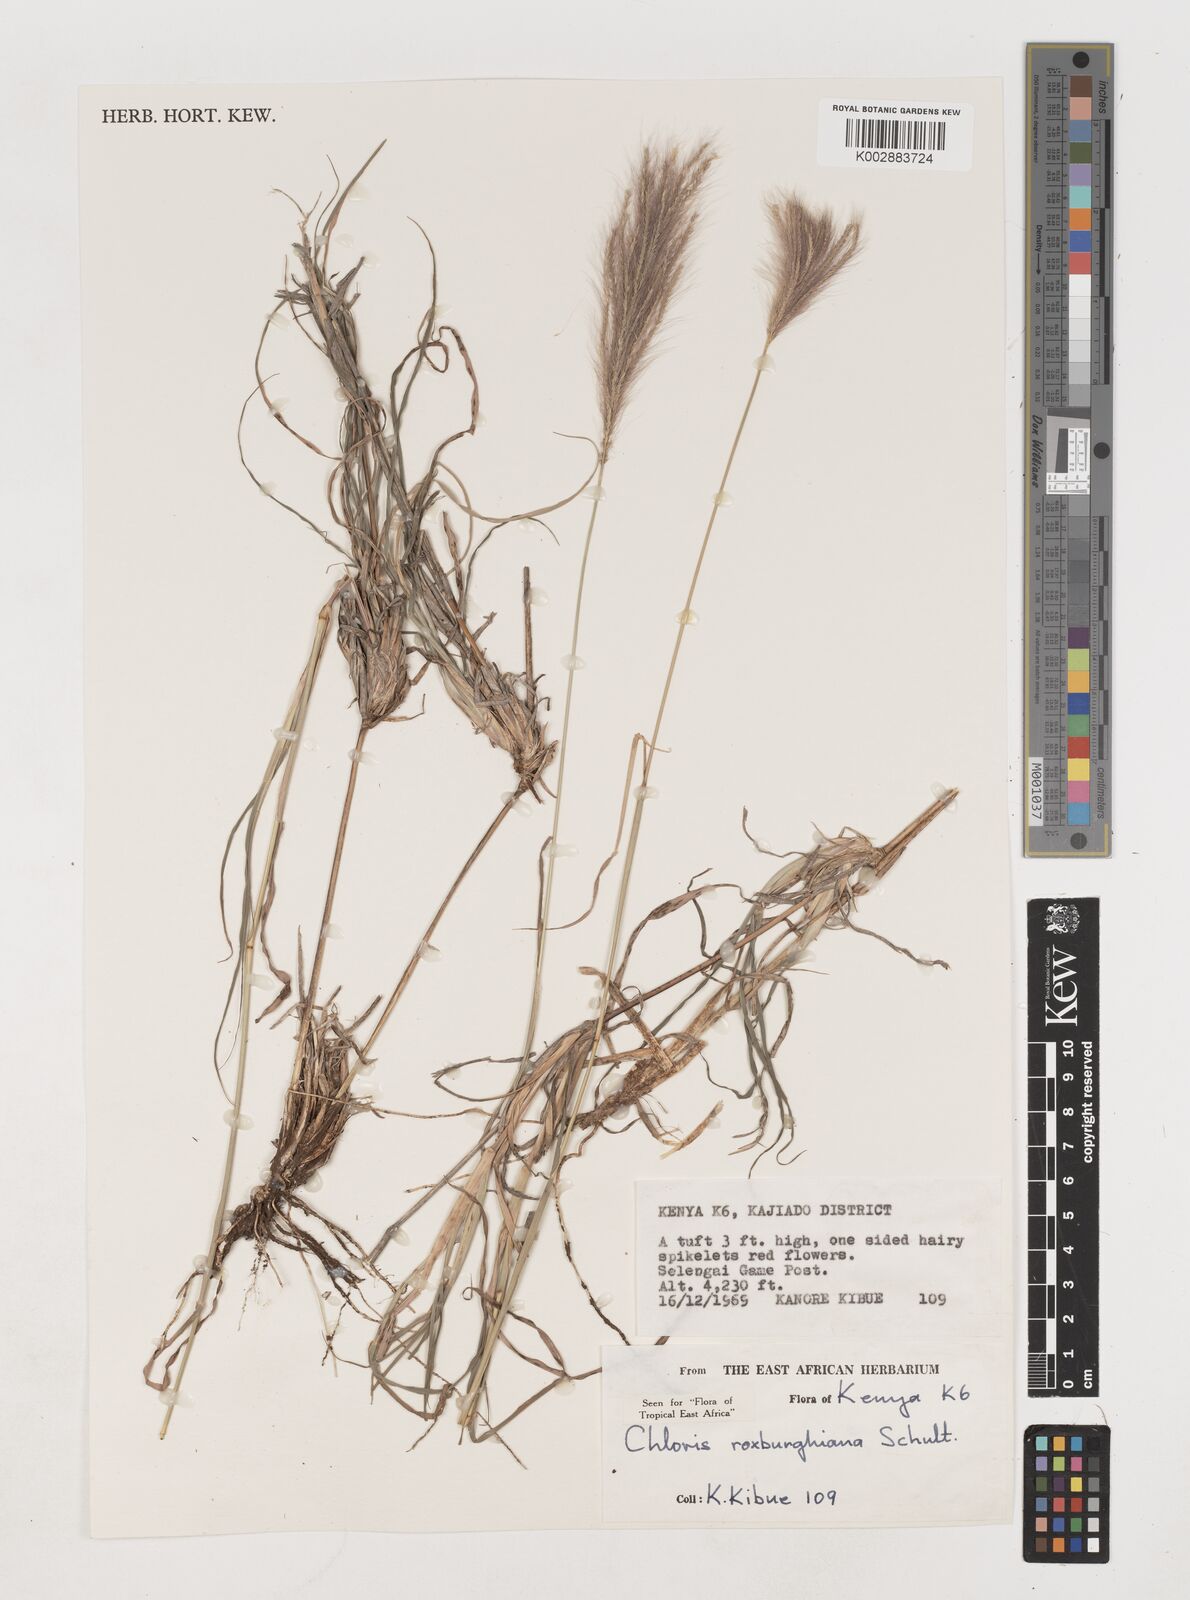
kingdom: Plantae
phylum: Tracheophyta
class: Liliopsida
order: Poales
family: Poaceae
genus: Tetrapogon
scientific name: Tetrapogon roxburghiana
